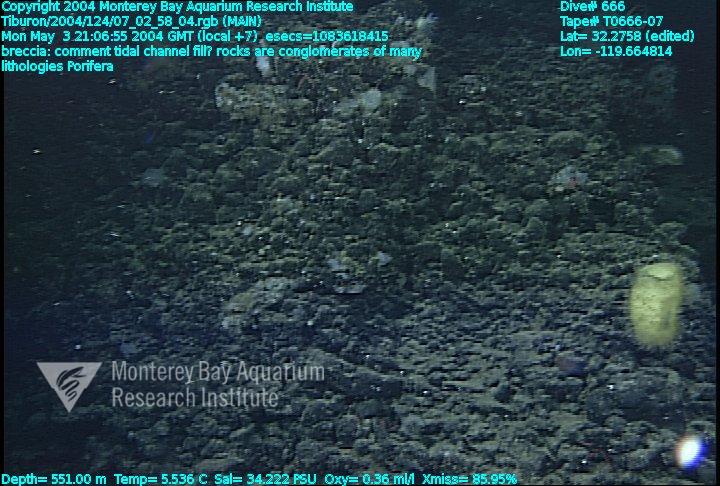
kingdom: Animalia
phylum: Porifera
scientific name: Porifera
